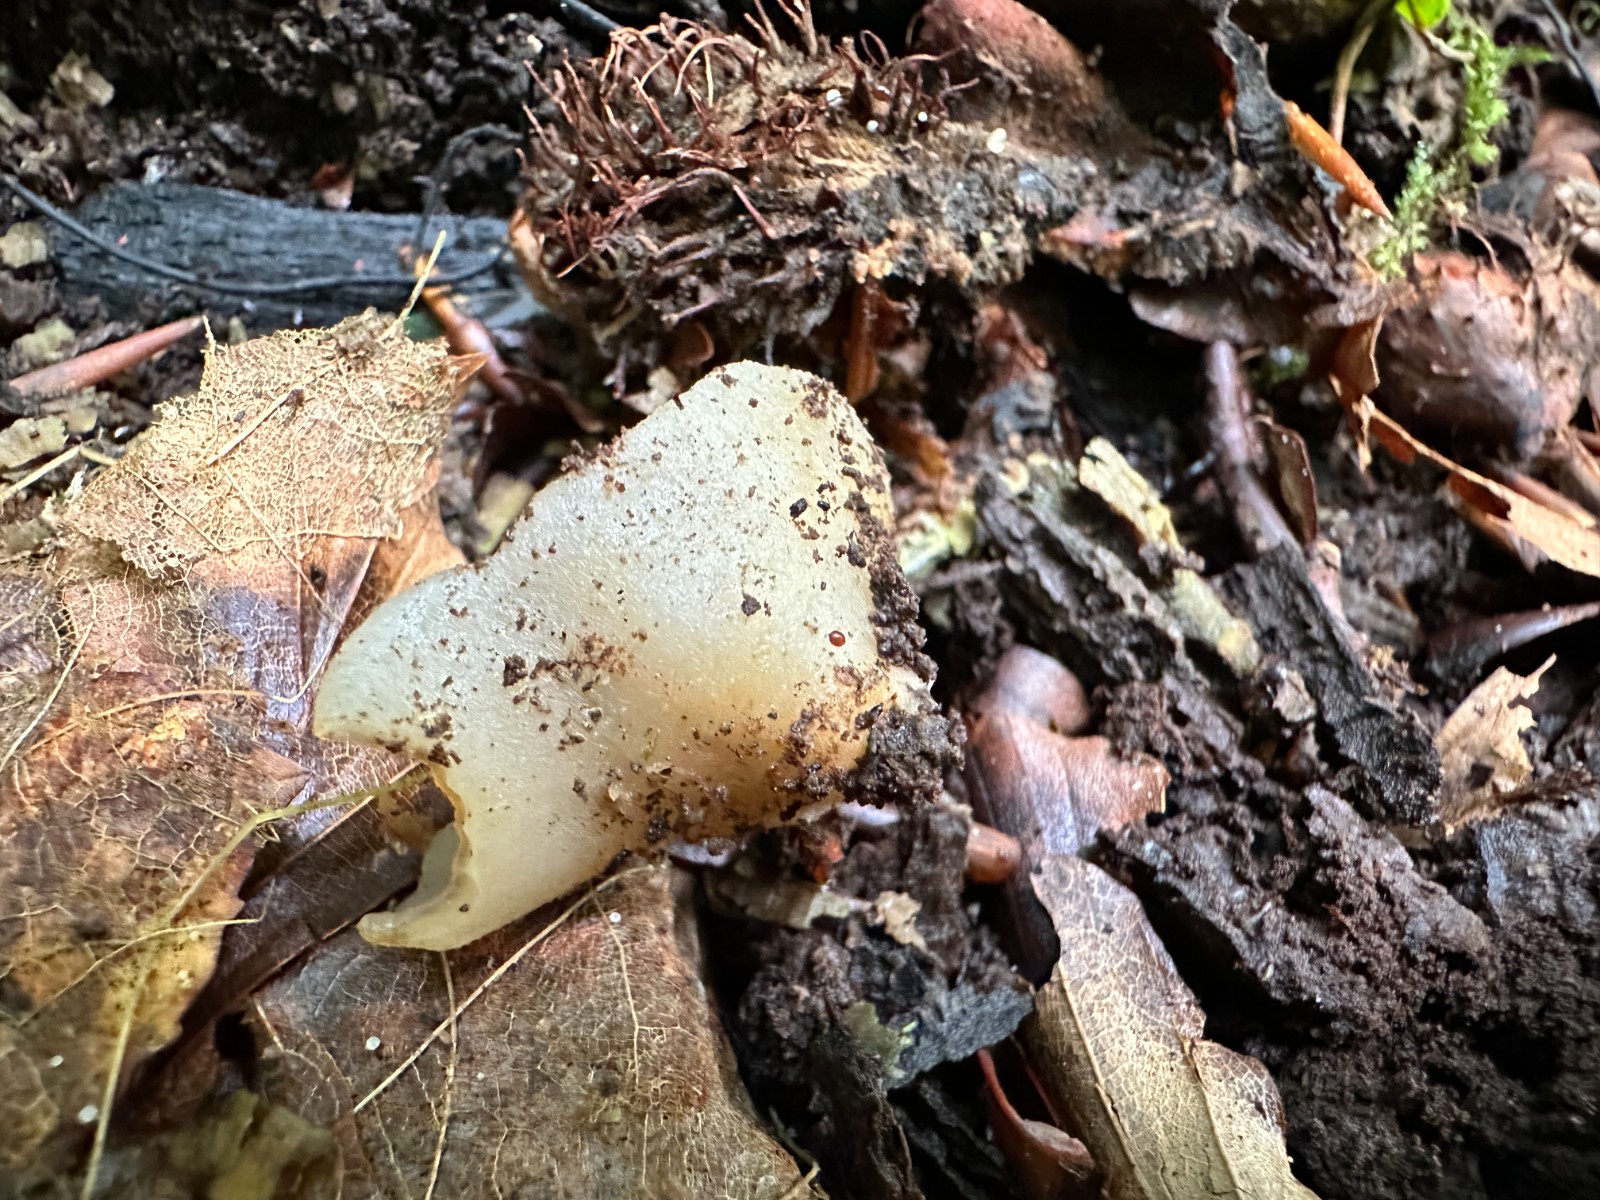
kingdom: Fungi
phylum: Ascomycota
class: Pezizomycetes
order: Pezizales
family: Pezizaceae
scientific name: Pezizaceae
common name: bægersvampfamilien
